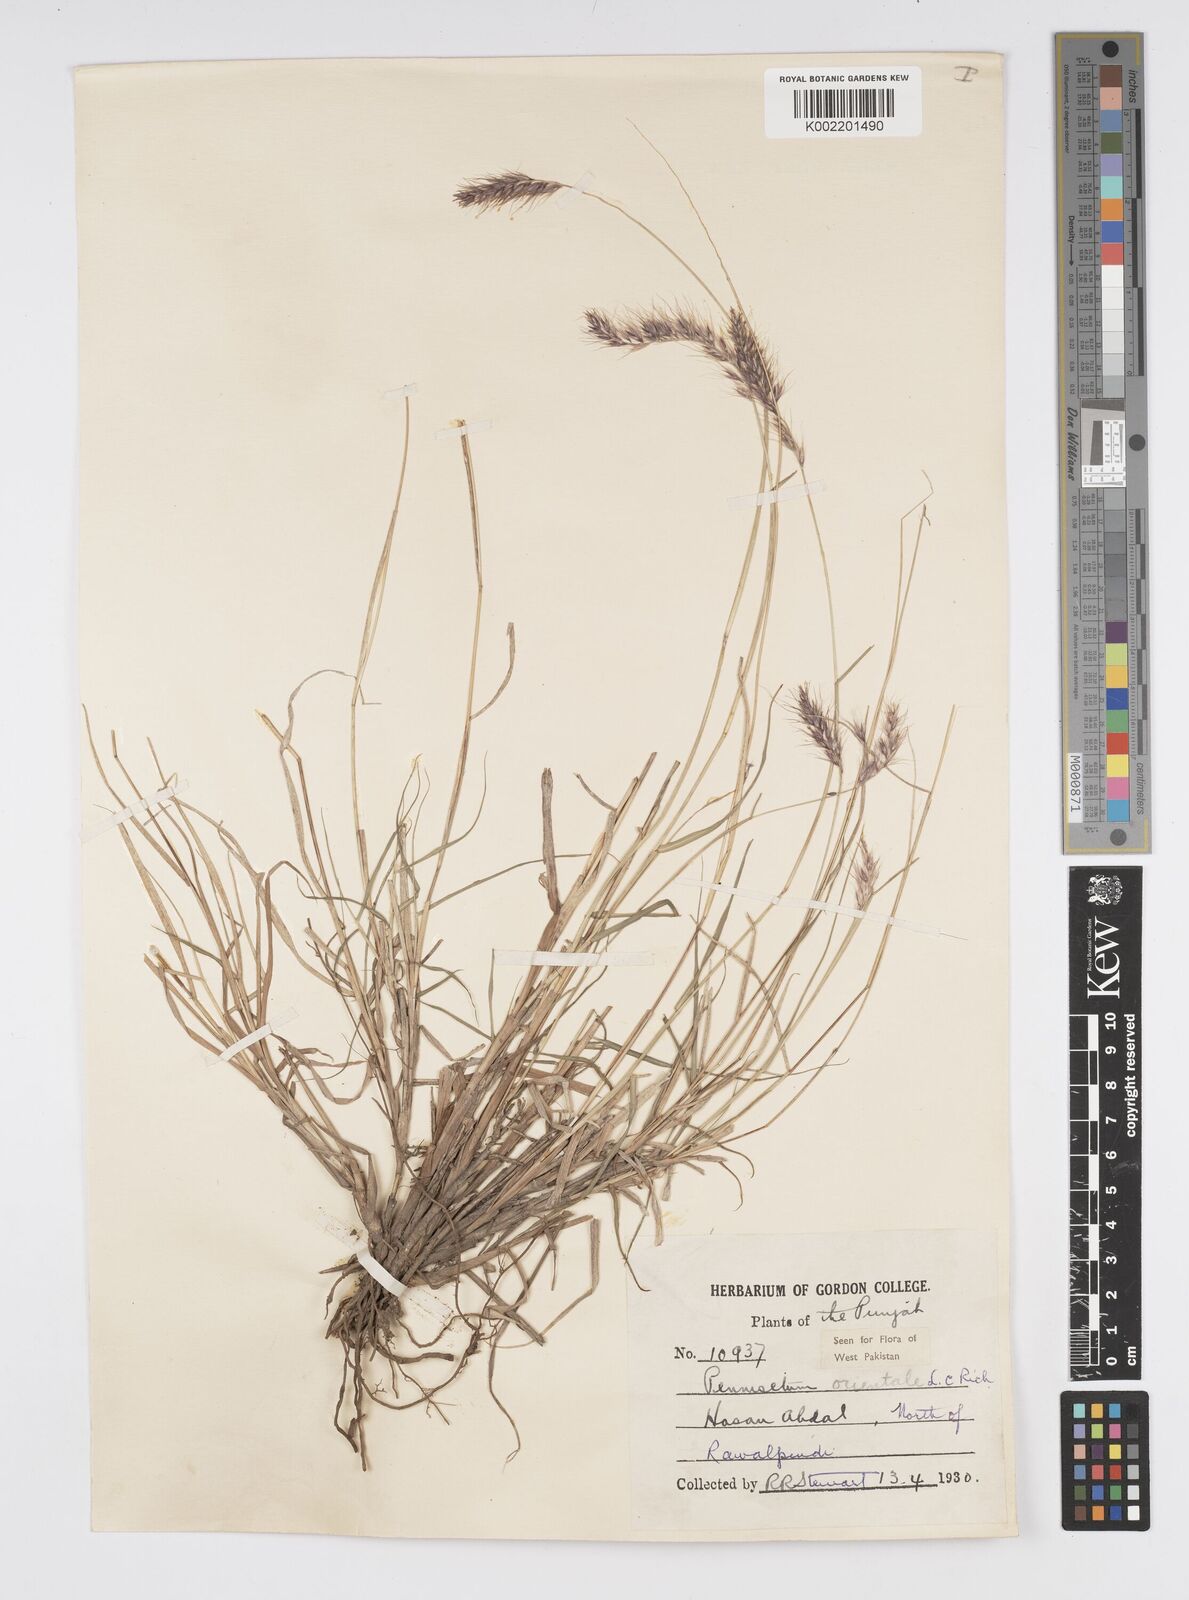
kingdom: Plantae
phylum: Tracheophyta
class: Liliopsida
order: Poales
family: Poaceae
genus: Cenchrus
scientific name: Cenchrus orientalis
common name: Oriental fountain grass
